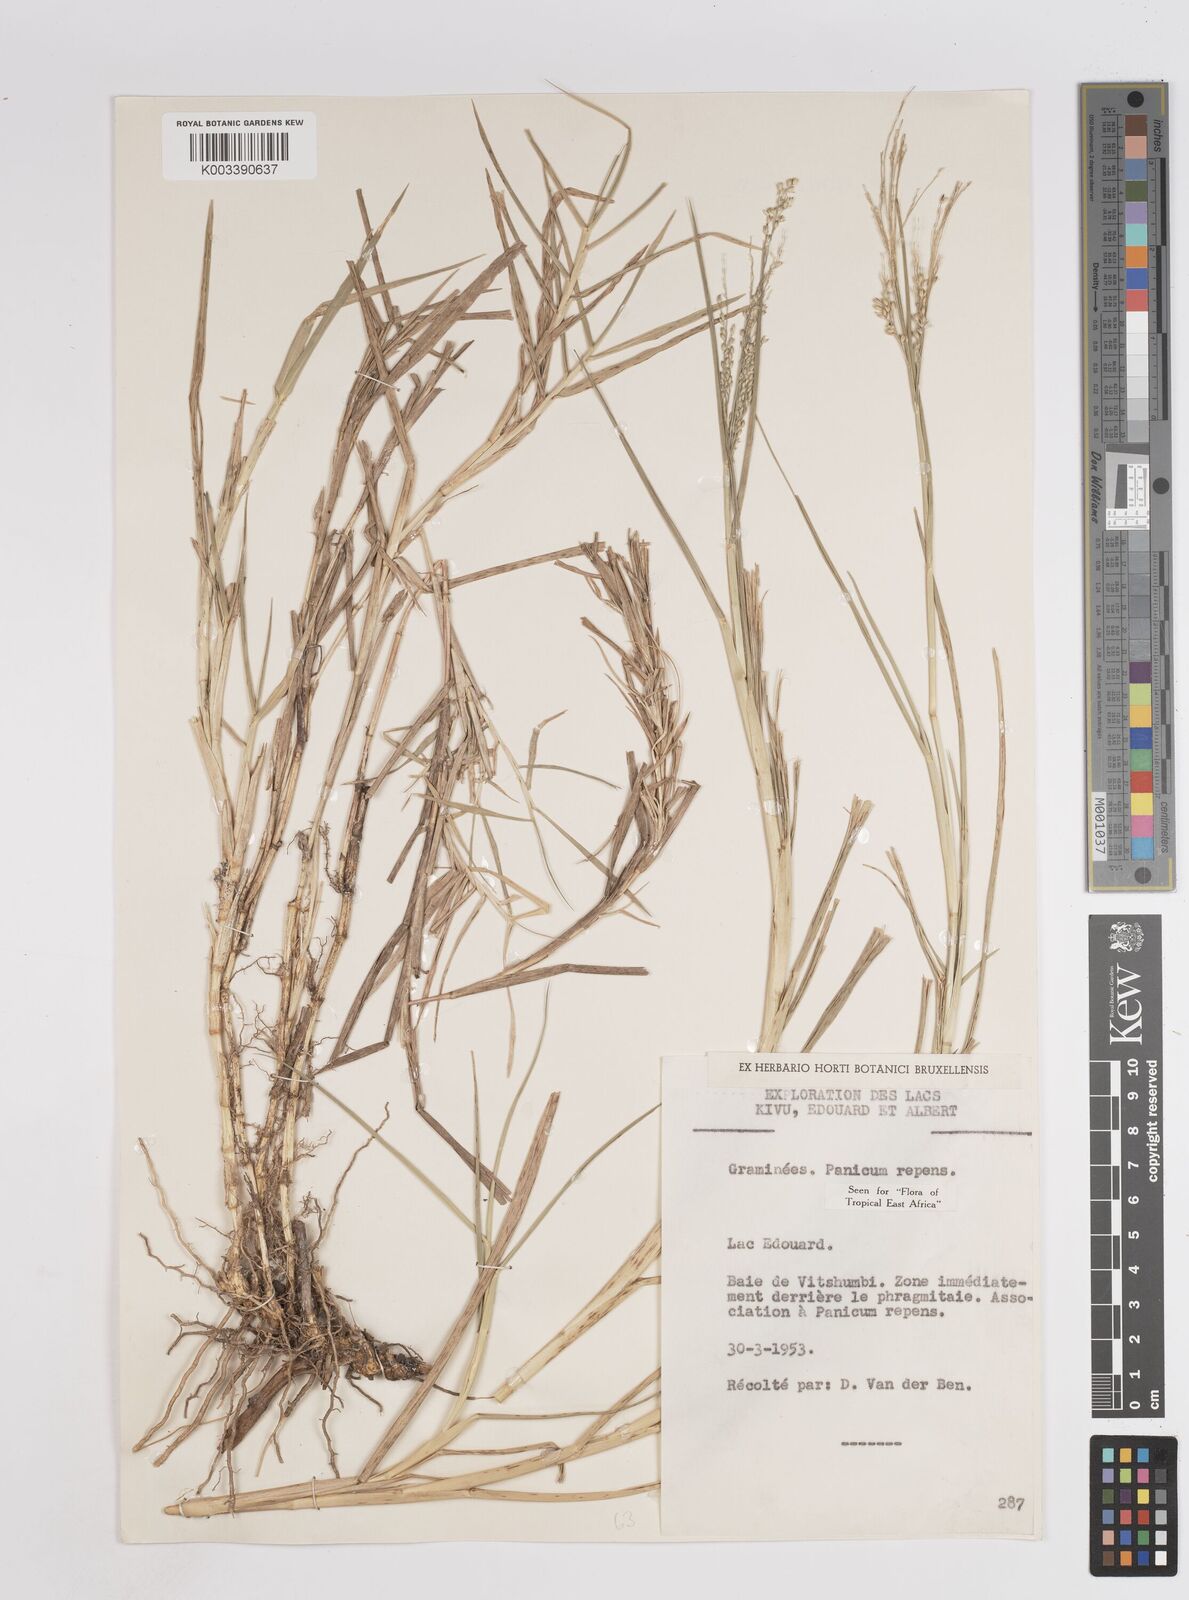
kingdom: Plantae
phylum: Tracheophyta
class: Liliopsida
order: Poales
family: Poaceae
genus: Panicum
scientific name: Panicum repens
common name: Torpedo grass
